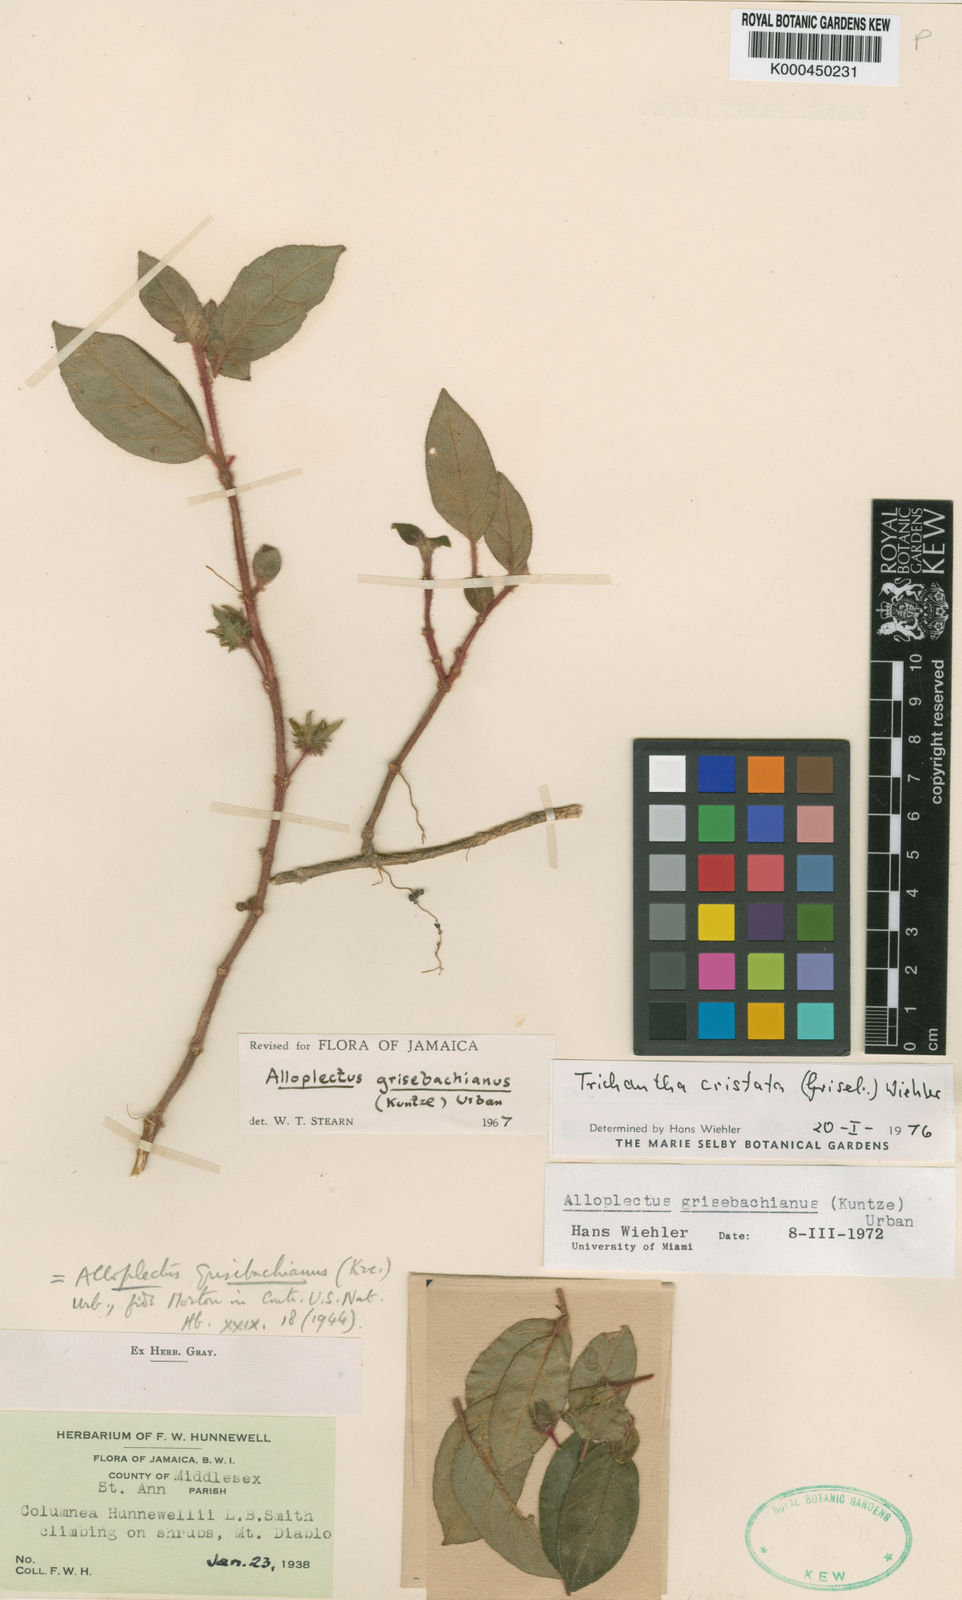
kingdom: Plantae
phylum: Tracheophyta
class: Magnoliopsida
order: Lamiales
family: Gesneriaceae
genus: Columnea
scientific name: Columnea grisebachiana
